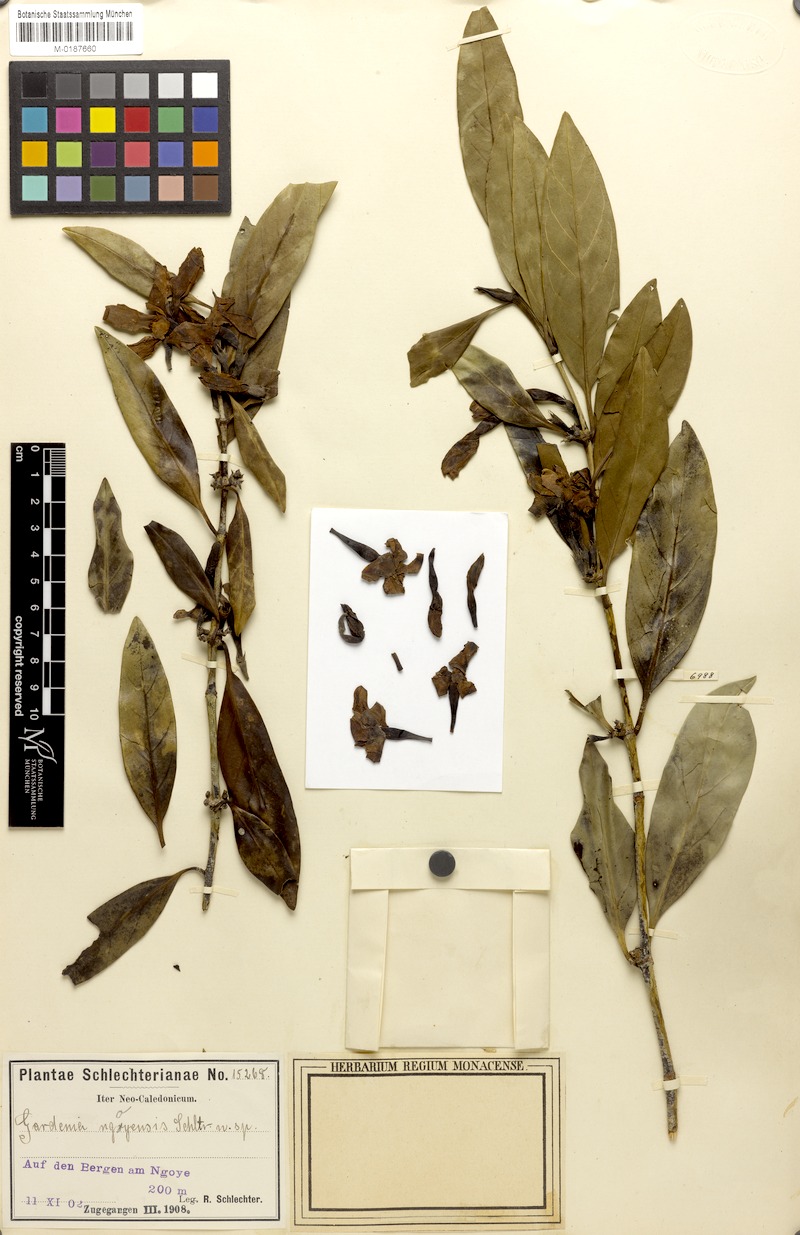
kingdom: Plantae
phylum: Tracheophyta
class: Magnoliopsida
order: Gentianales
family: Rubiaceae
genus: Atractocarpus
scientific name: Atractocarpus ngoyensis
